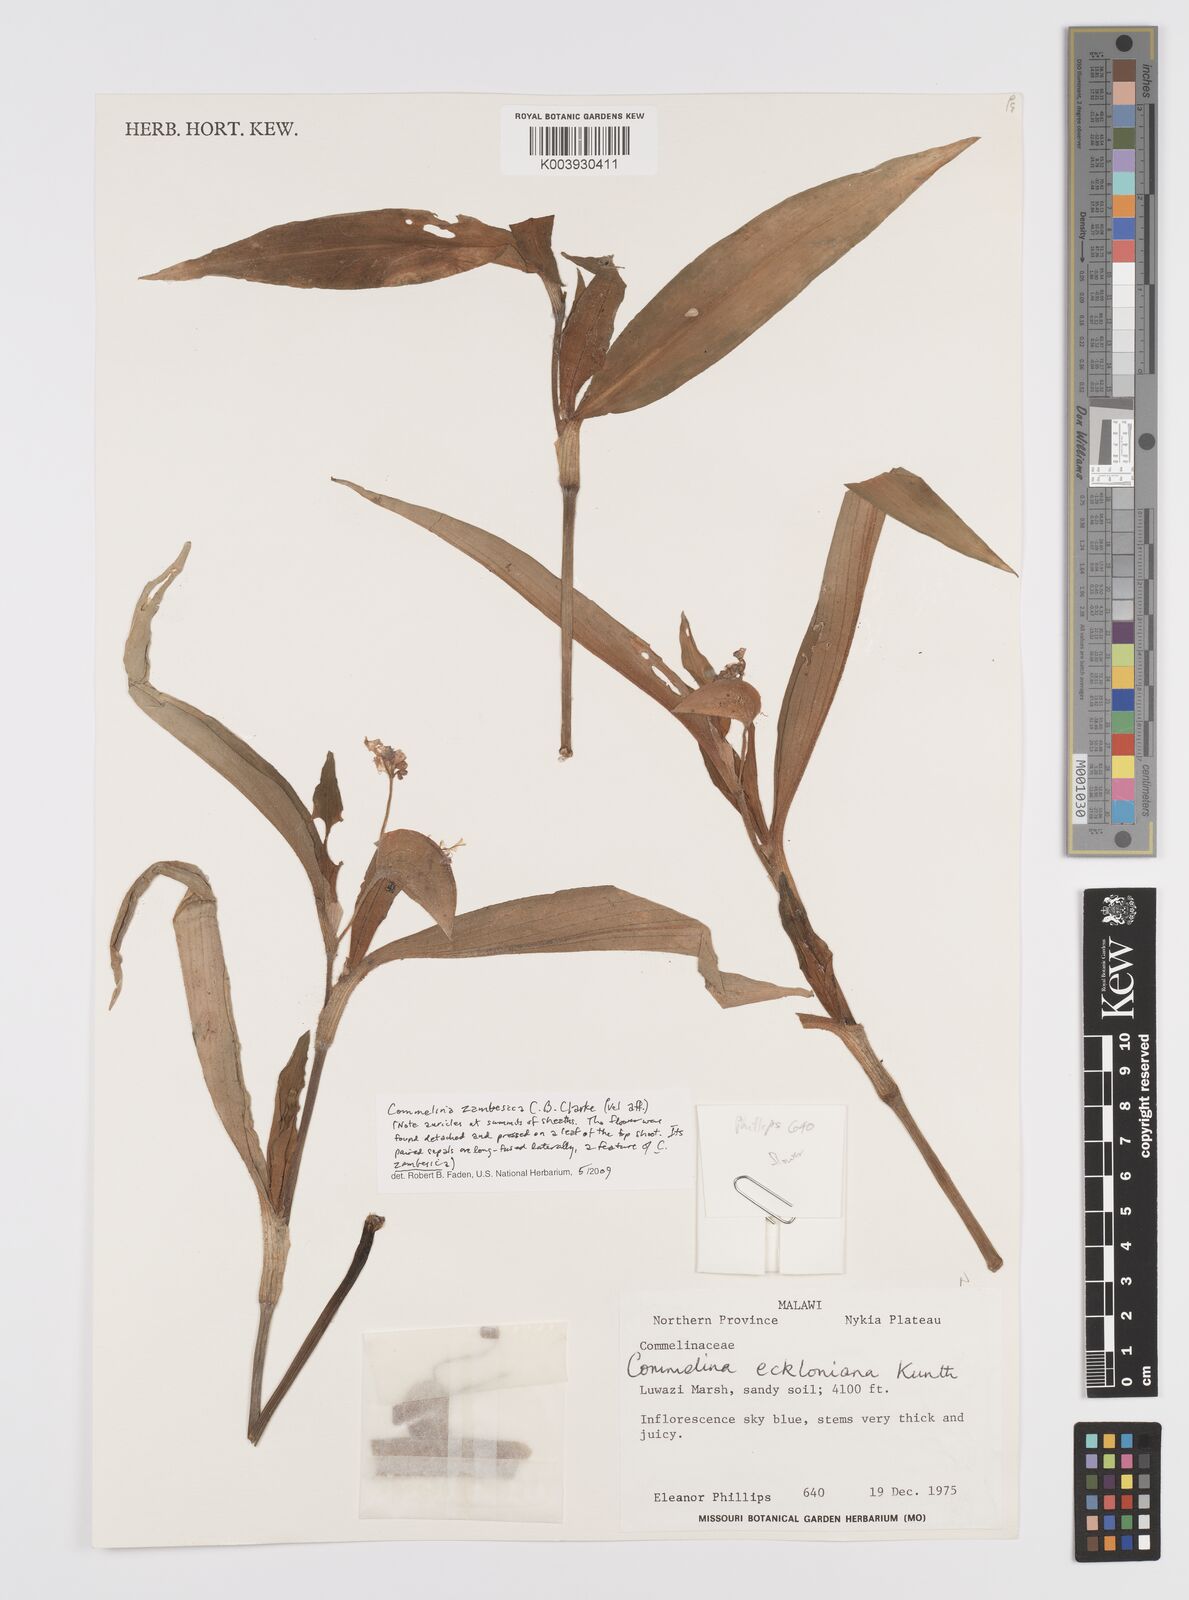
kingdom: Plantae
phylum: Tracheophyta
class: Liliopsida
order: Commelinales
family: Commelinaceae
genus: Commelina
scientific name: Commelina zambesica
